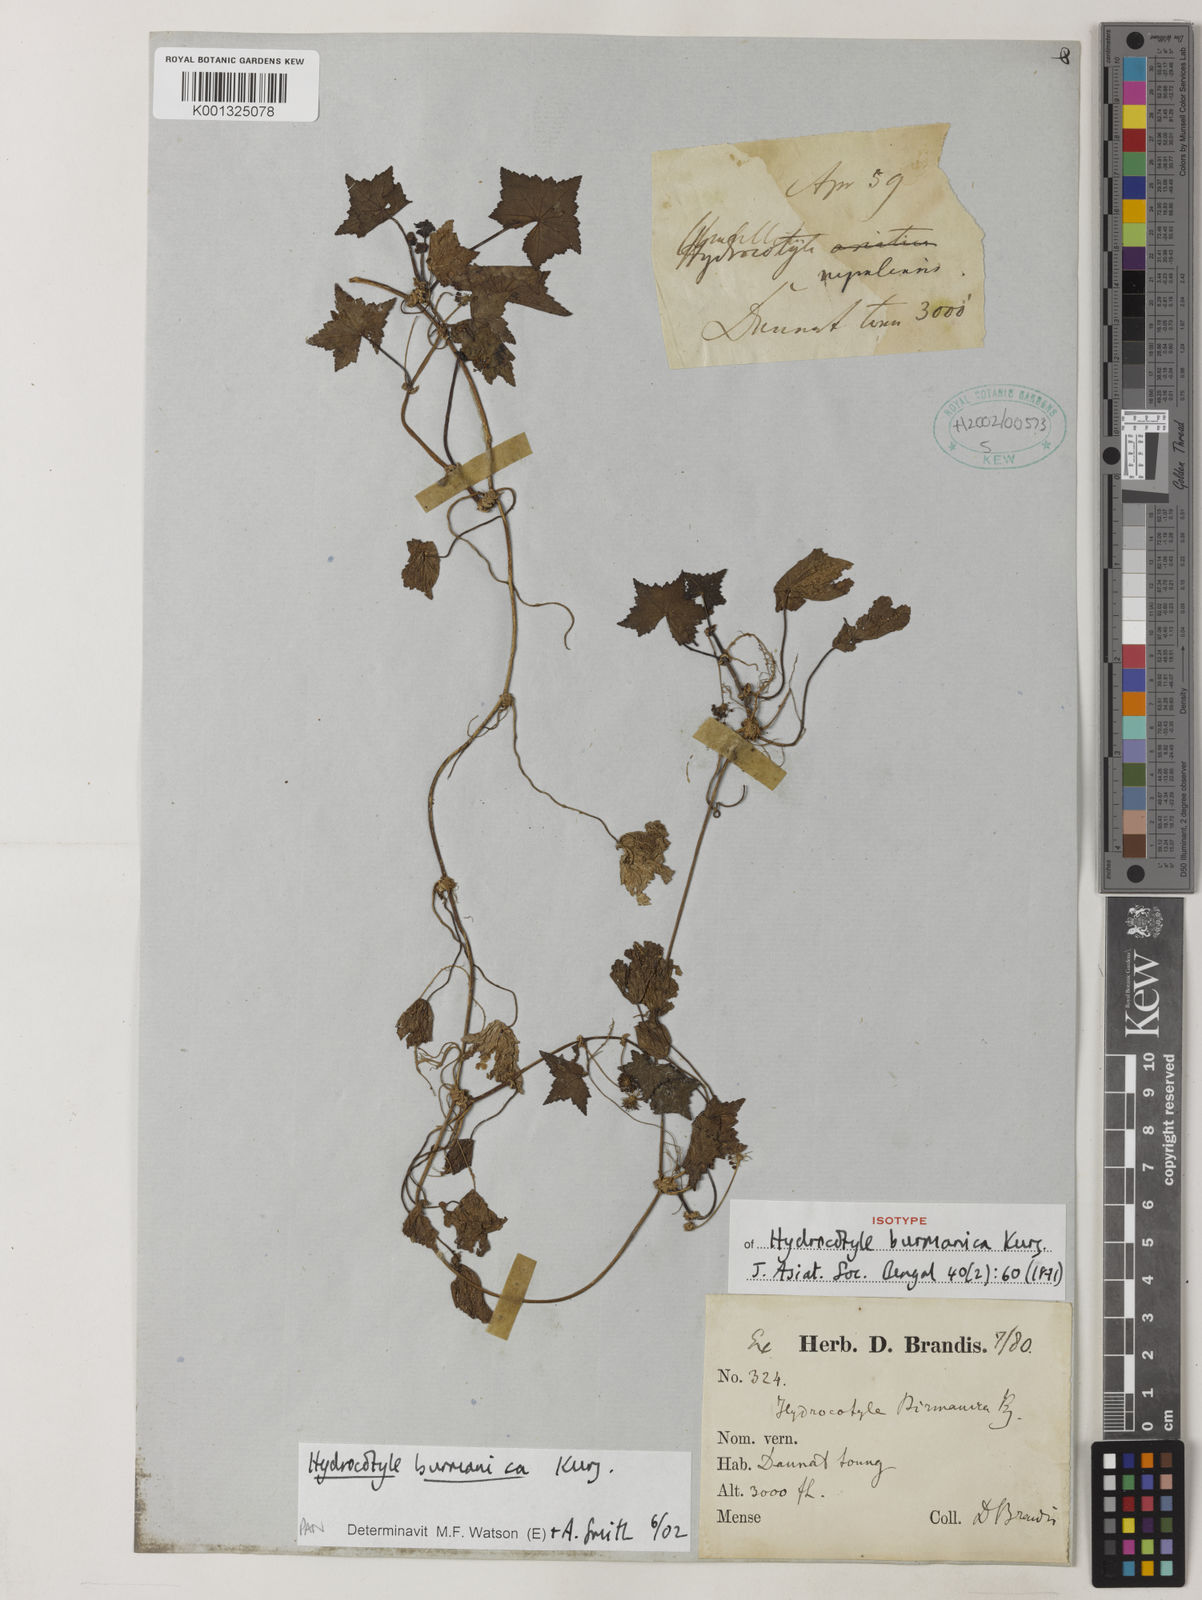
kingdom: Plantae
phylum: Tracheophyta
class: Magnoliopsida
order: Apiales
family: Araliaceae
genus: Hydrocotyle
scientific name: Hydrocotyle burmanica
